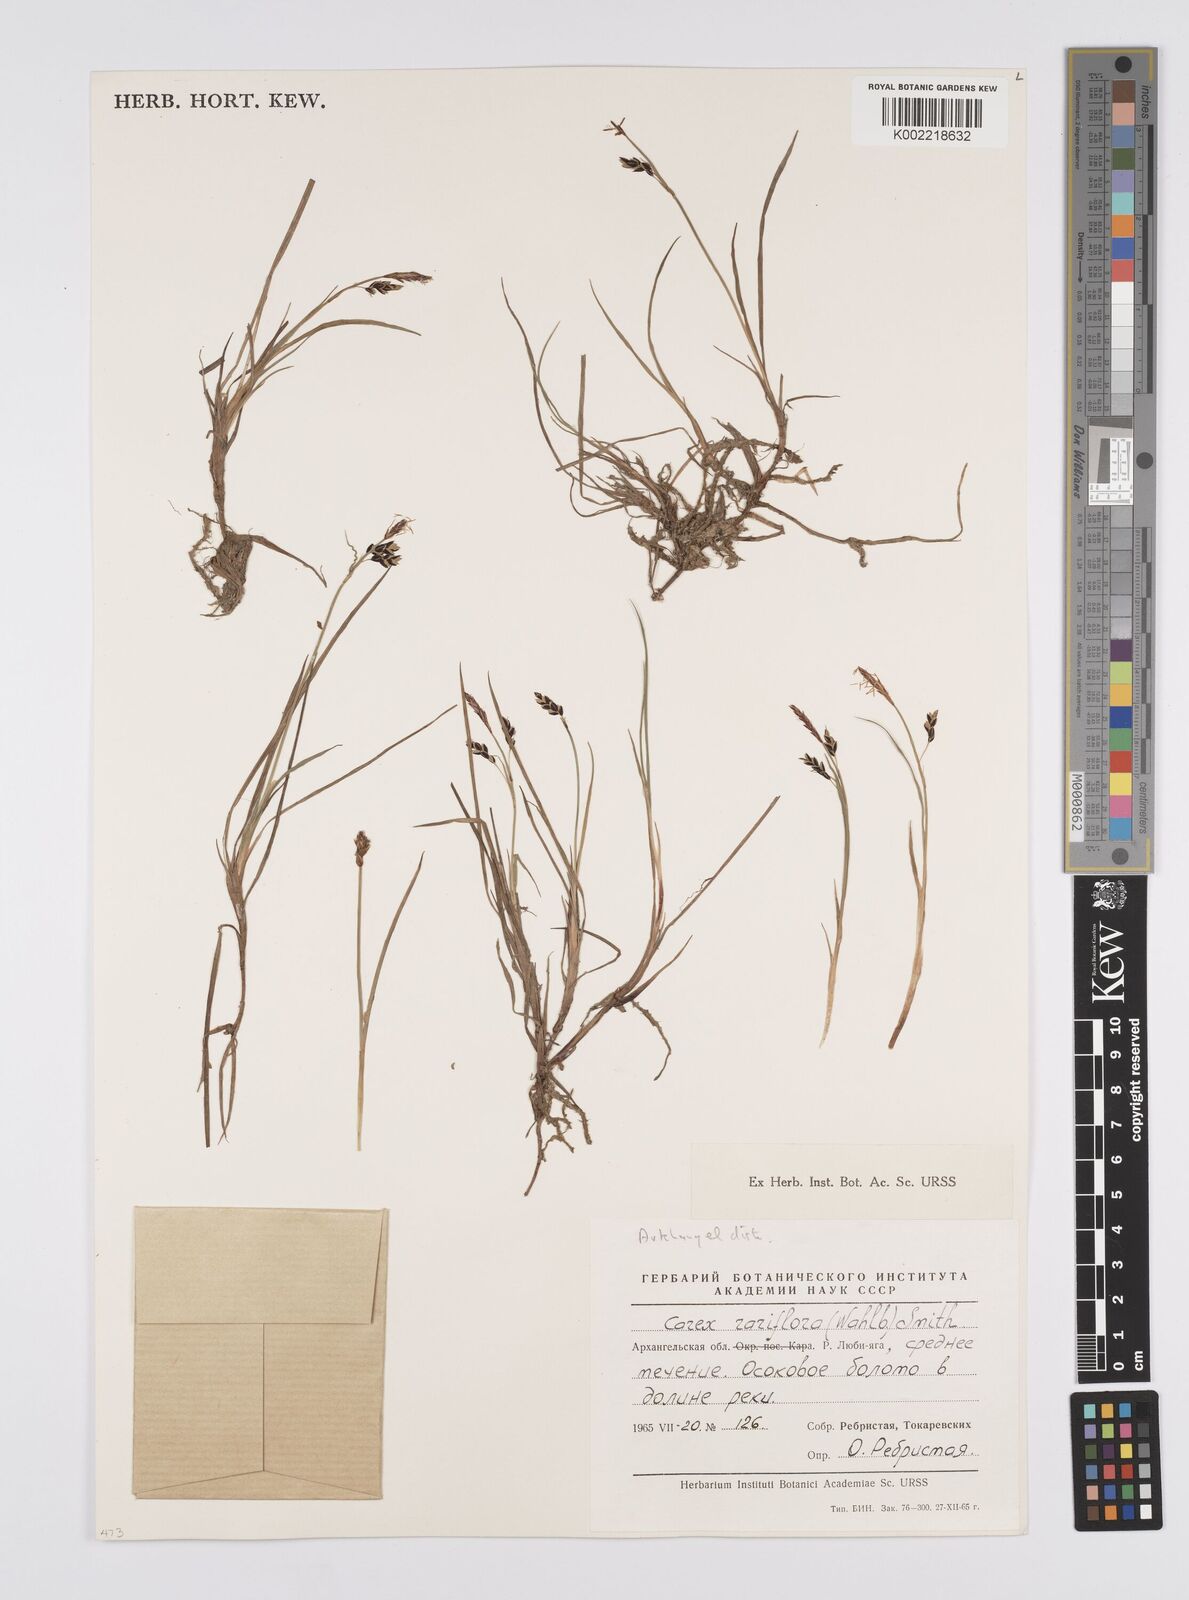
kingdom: Plantae
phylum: Tracheophyta
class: Liliopsida
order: Poales
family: Cyperaceae
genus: Carex
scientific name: Carex rariflora
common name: Loose-flowered alpine sedge
